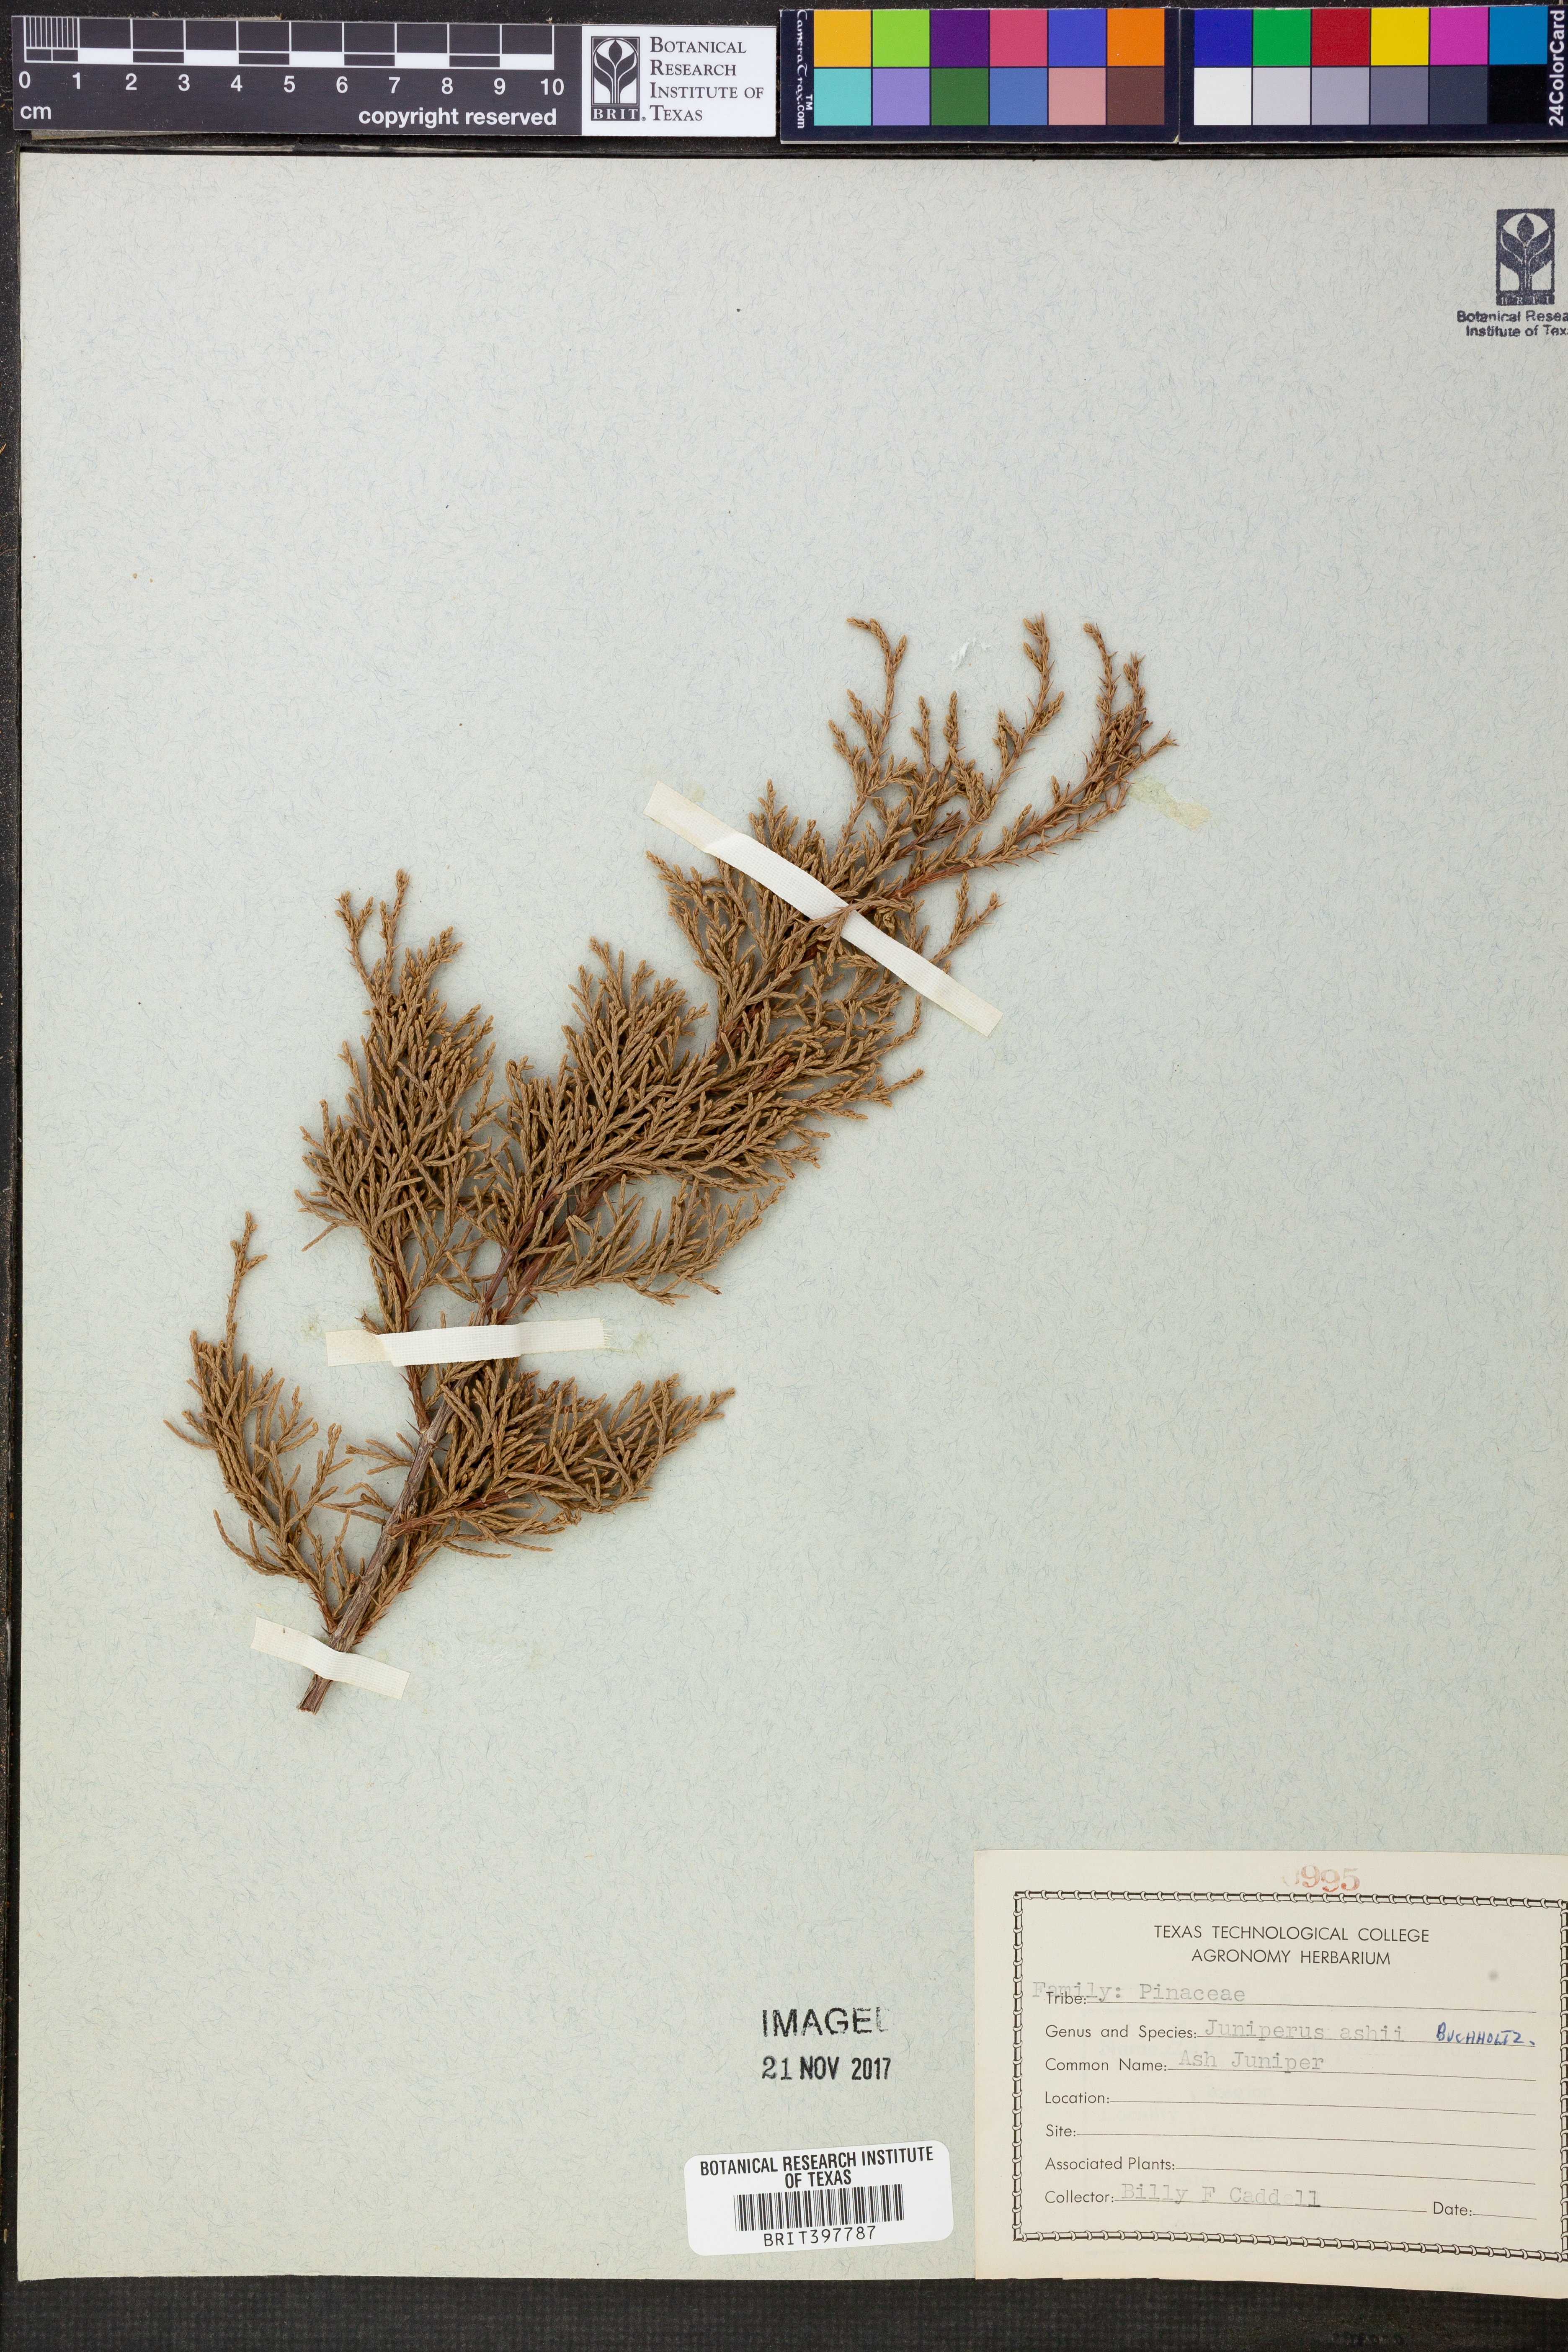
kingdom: Plantae
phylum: Tracheophyta
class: Pinopsida
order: Pinales
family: Cupressaceae
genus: Juniperus
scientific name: Juniperus ashei
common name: Mexican juniper
